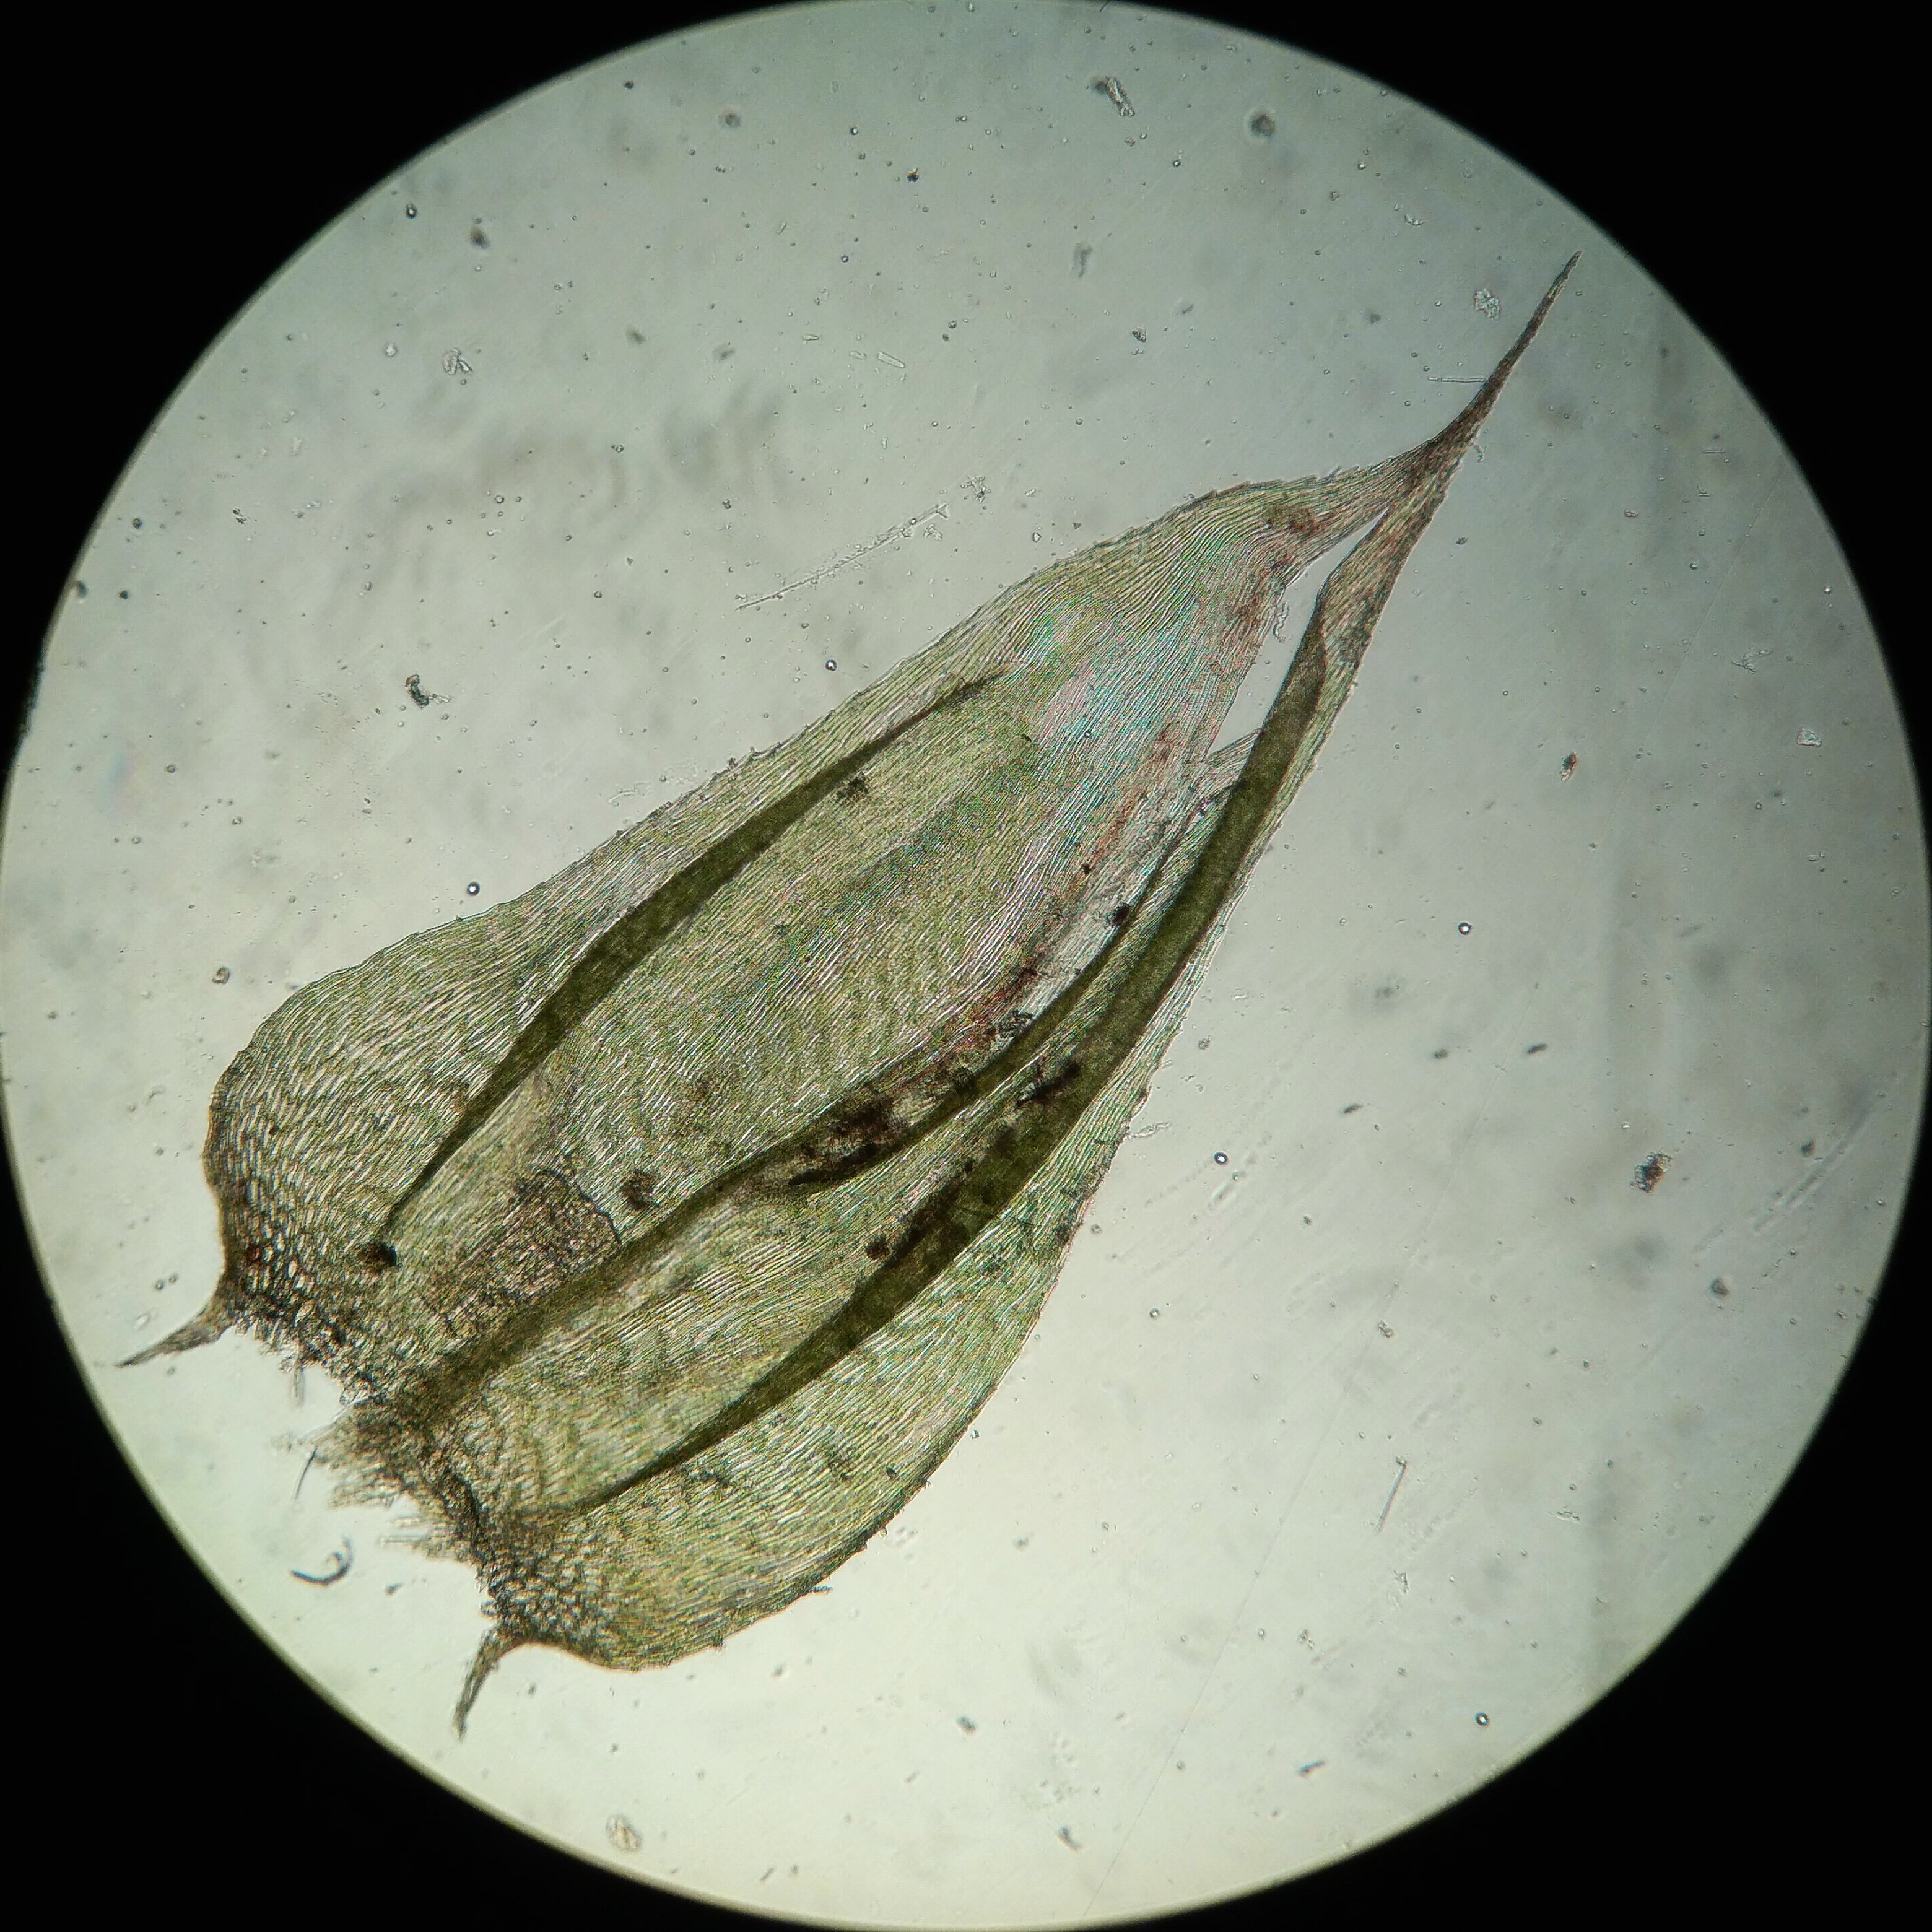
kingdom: Plantae
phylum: Bryophyta
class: Bryopsida
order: Hypnales
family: Brachytheciaceae
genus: Brachythecium
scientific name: Brachythecium rutabulum
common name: Almindelig kortkapsel
